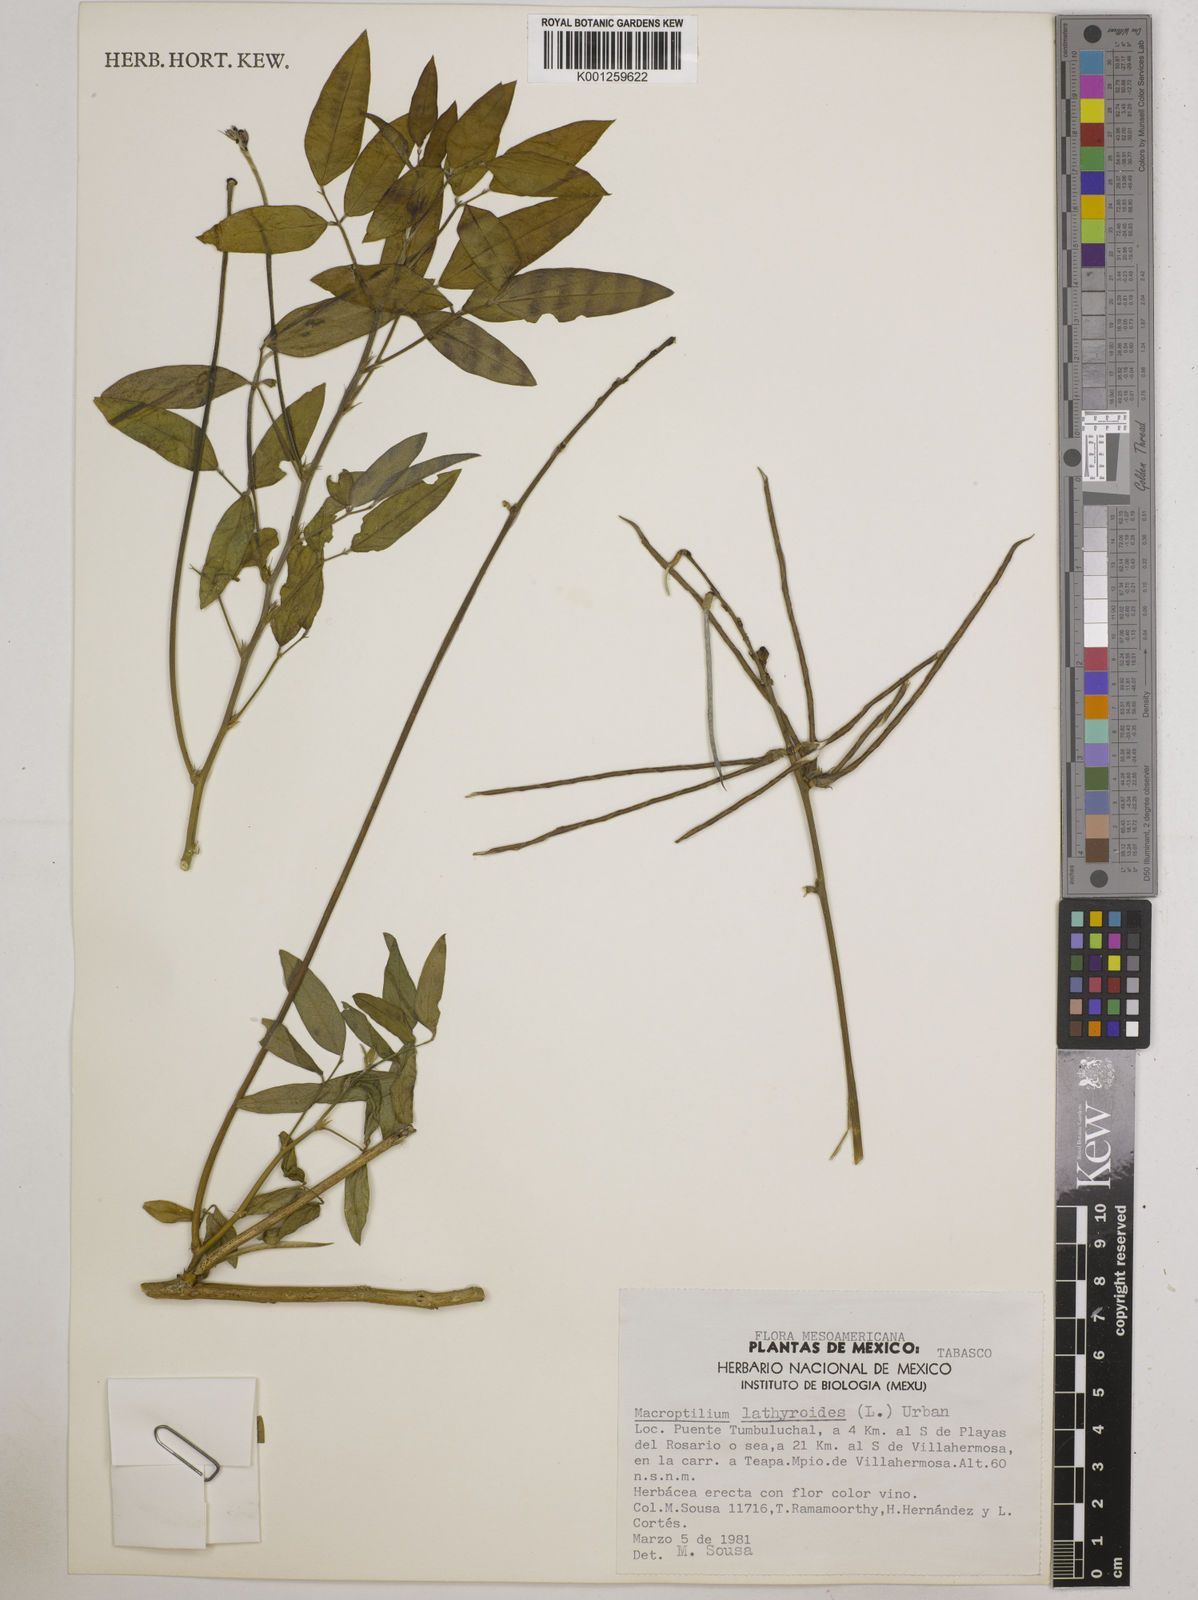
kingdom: Plantae
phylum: Tracheophyta
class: Magnoliopsida
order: Fabales
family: Fabaceae
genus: Macroptilium
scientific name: Macroptilium lathyroides
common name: Wild bushbean
